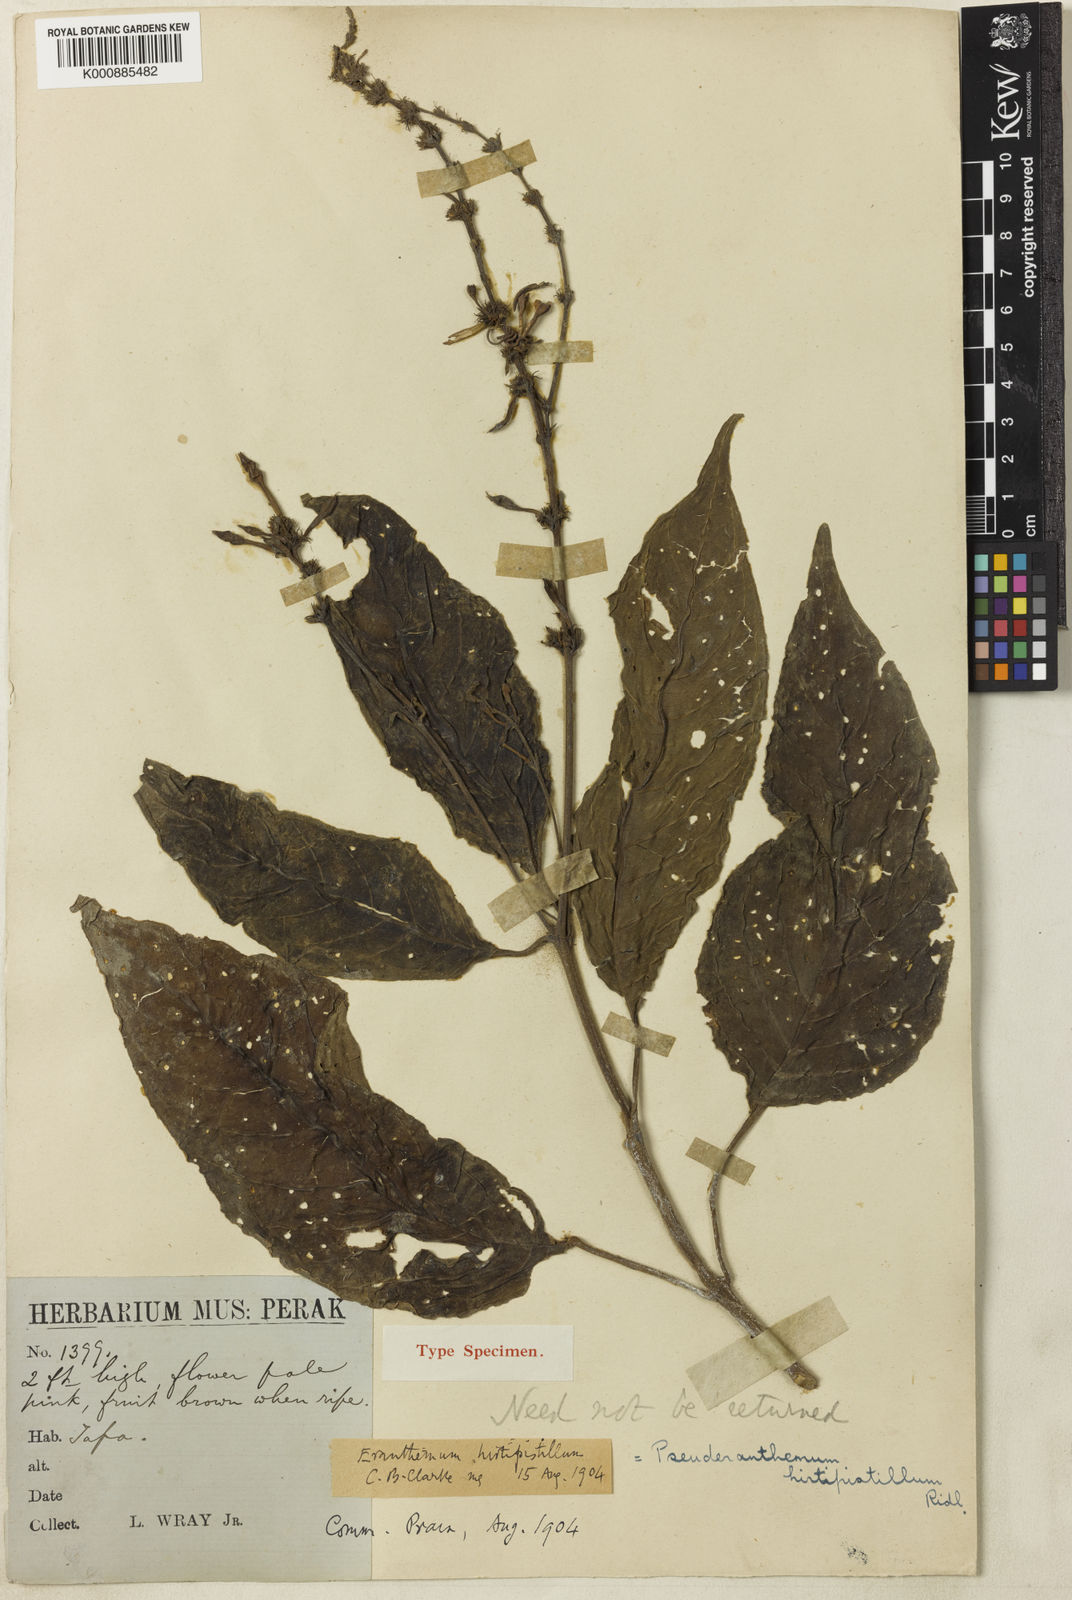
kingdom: Plantae
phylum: Tracheophyta
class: Magnoliopsida
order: Lamiales
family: Acanthaceae
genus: Pseuderanthemum
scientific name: Pseuderanthemum hirtipistillum
